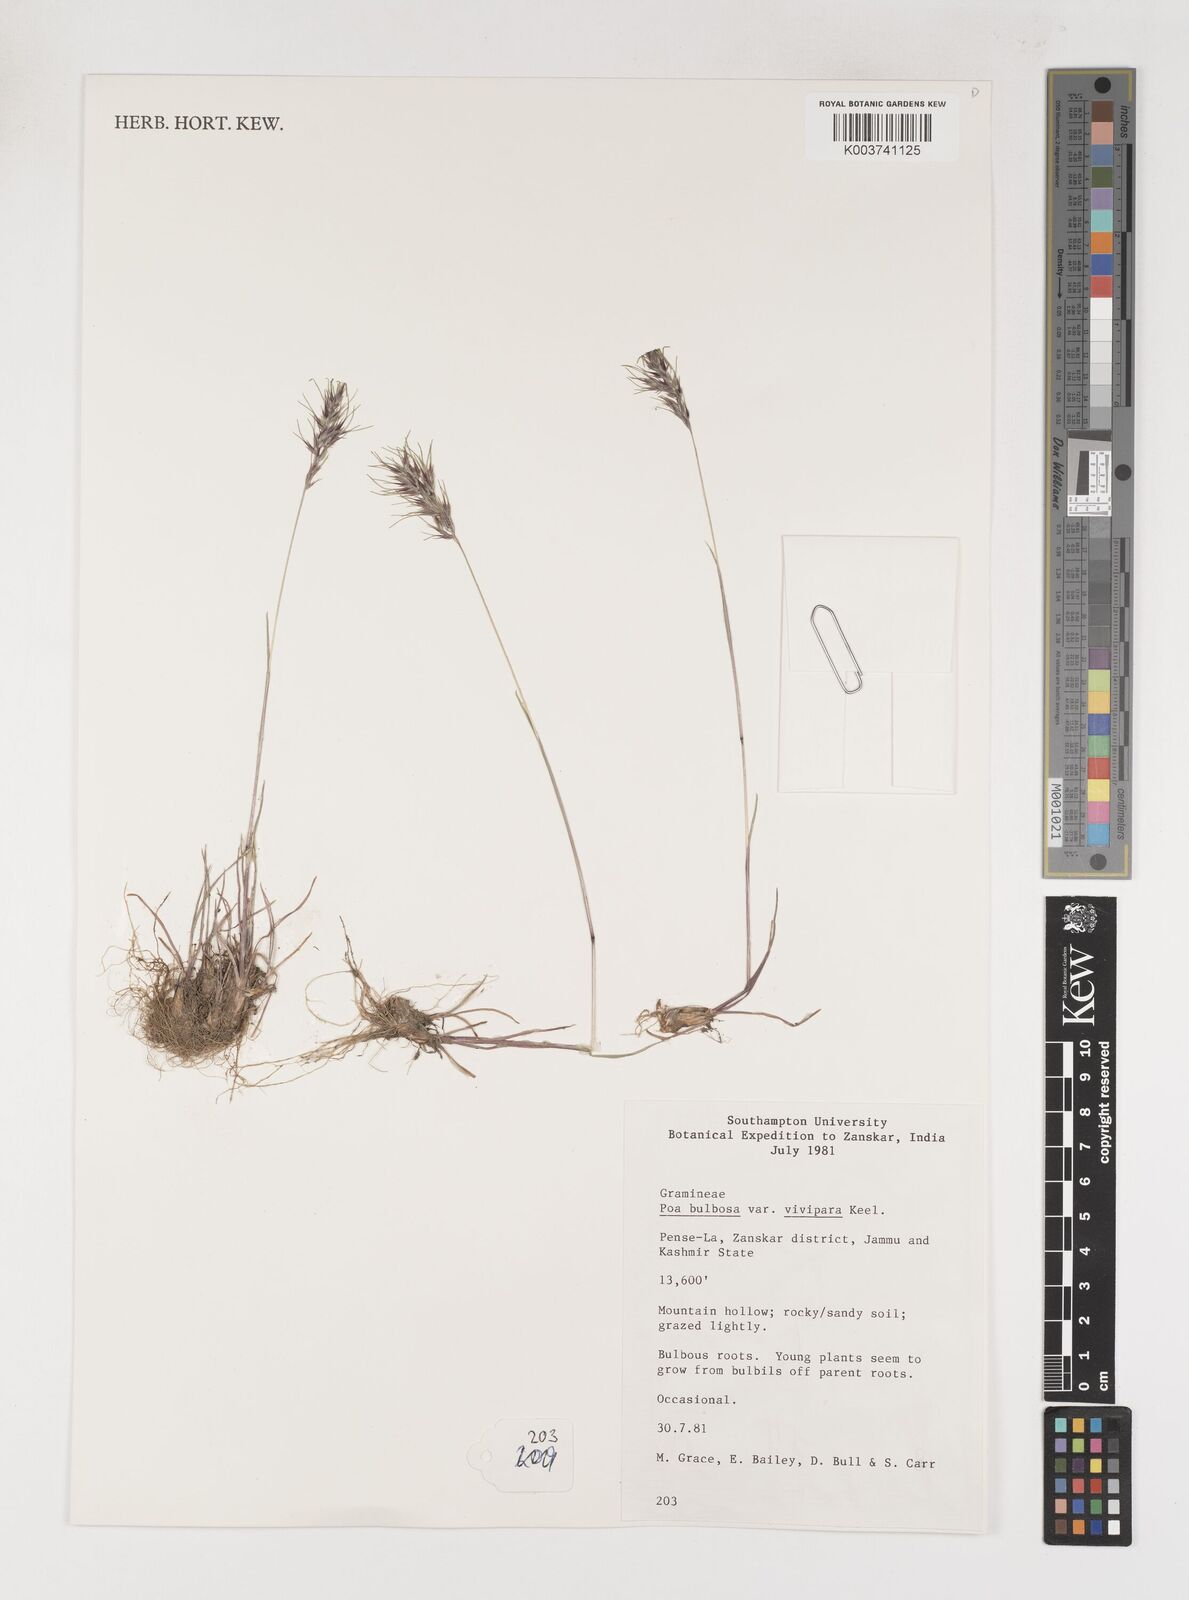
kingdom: Plantae
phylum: Tracheophyta
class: Liliopsida
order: Poales
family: Poaceae
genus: Poa
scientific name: Poa bulbosa
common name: Bulbous bluegrass
